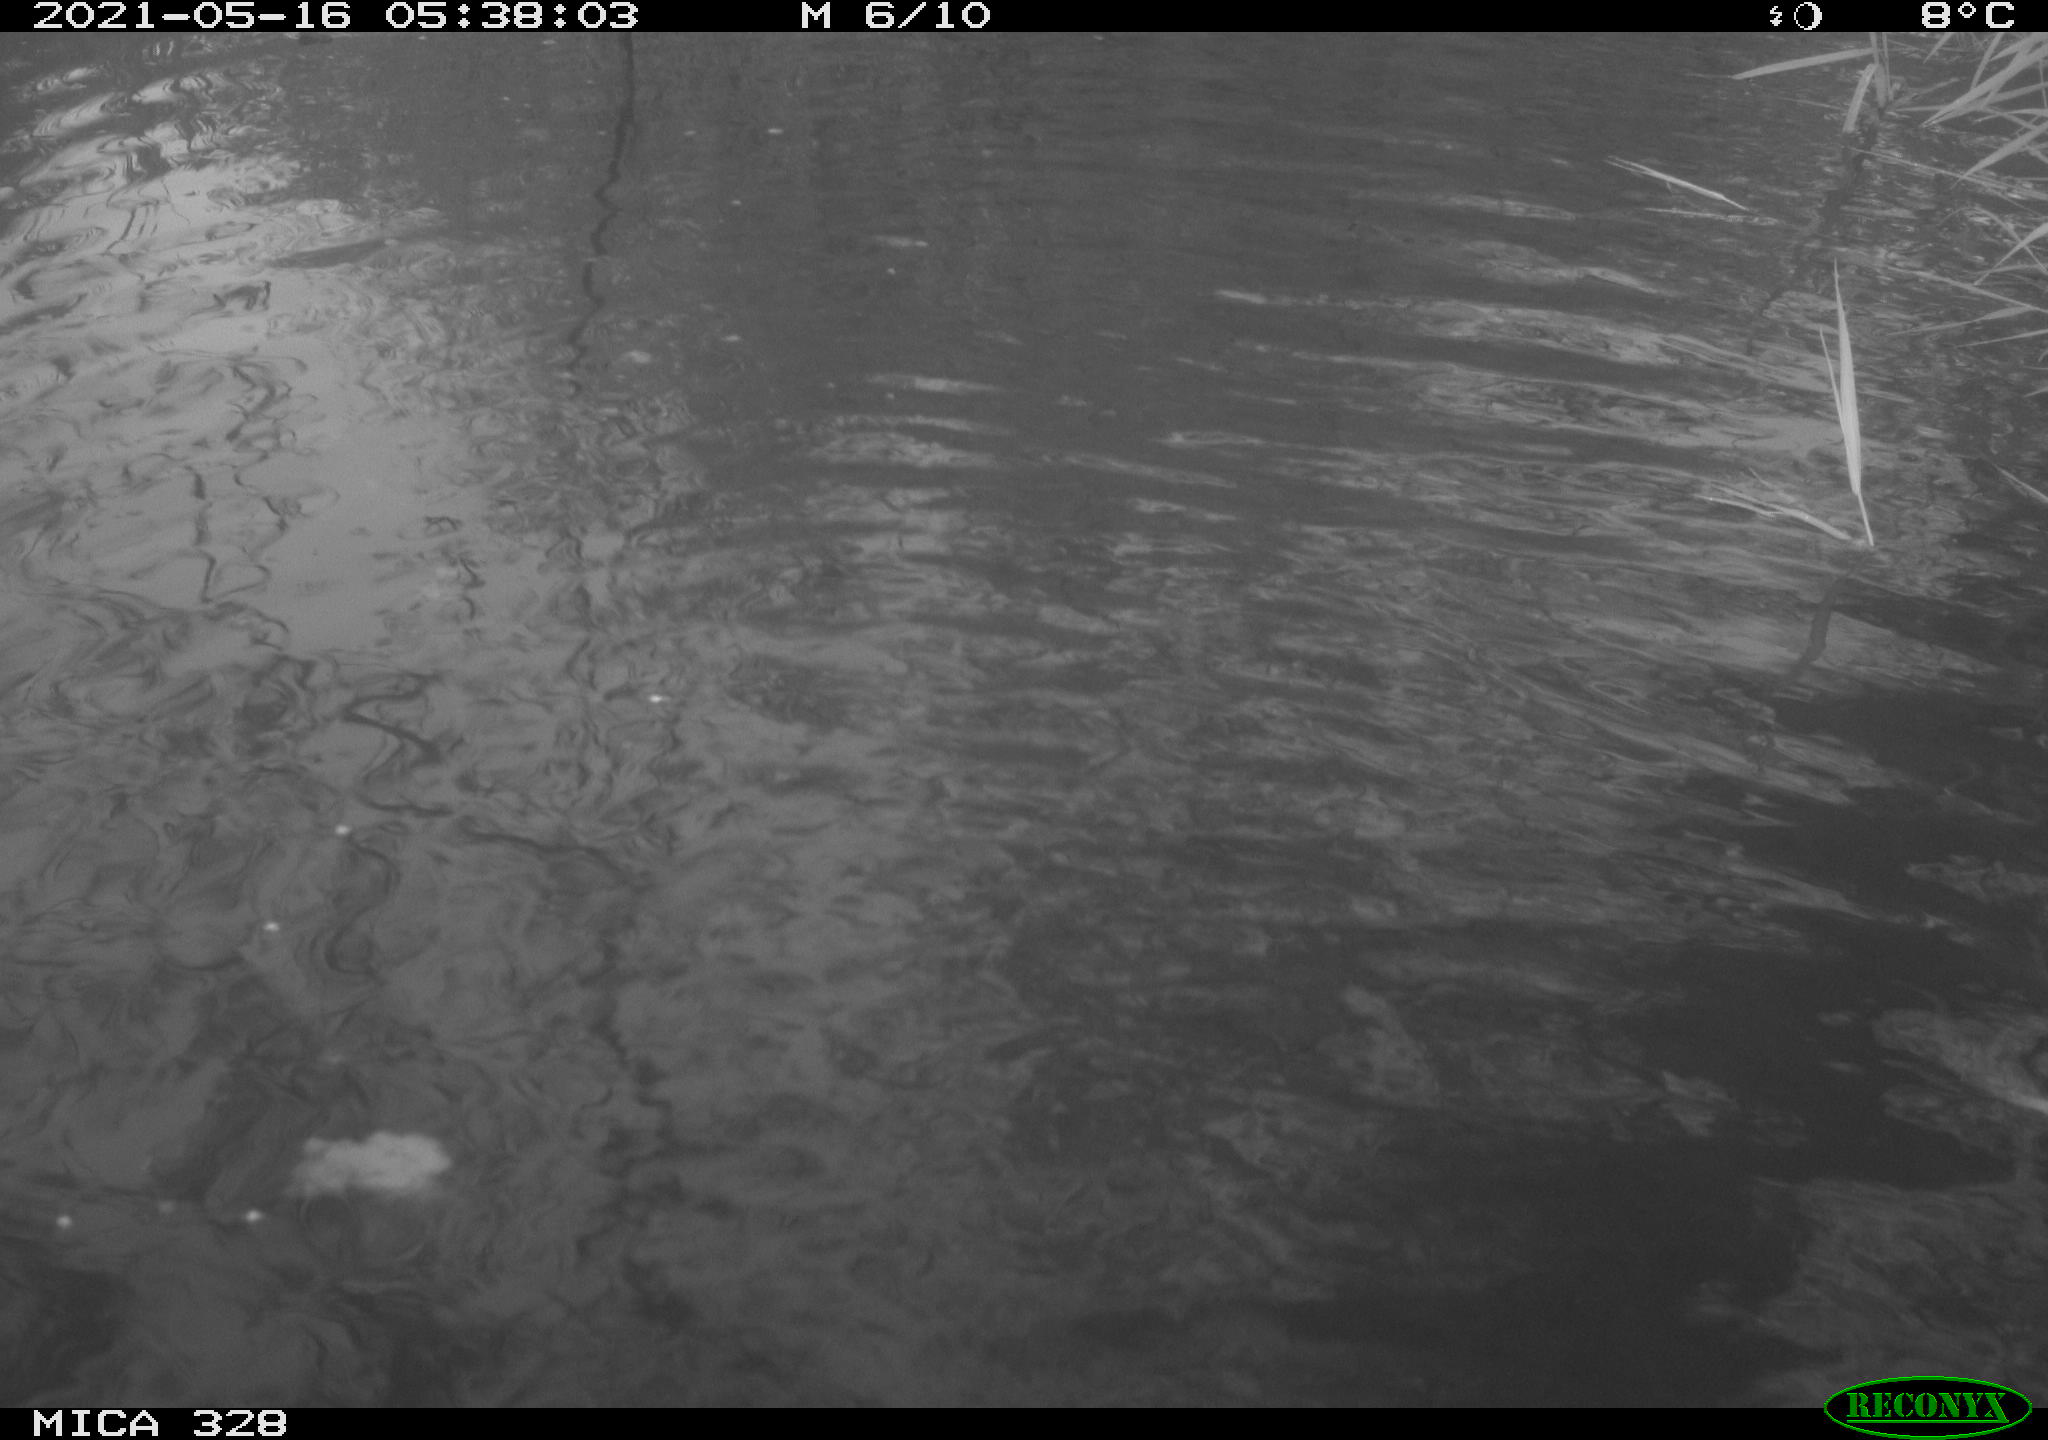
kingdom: Animalia
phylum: Chordata
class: Mammalia
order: Rodentia
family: Cricetidae
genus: Ondatra
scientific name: Ondatra zibethicus
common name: Muskrat
